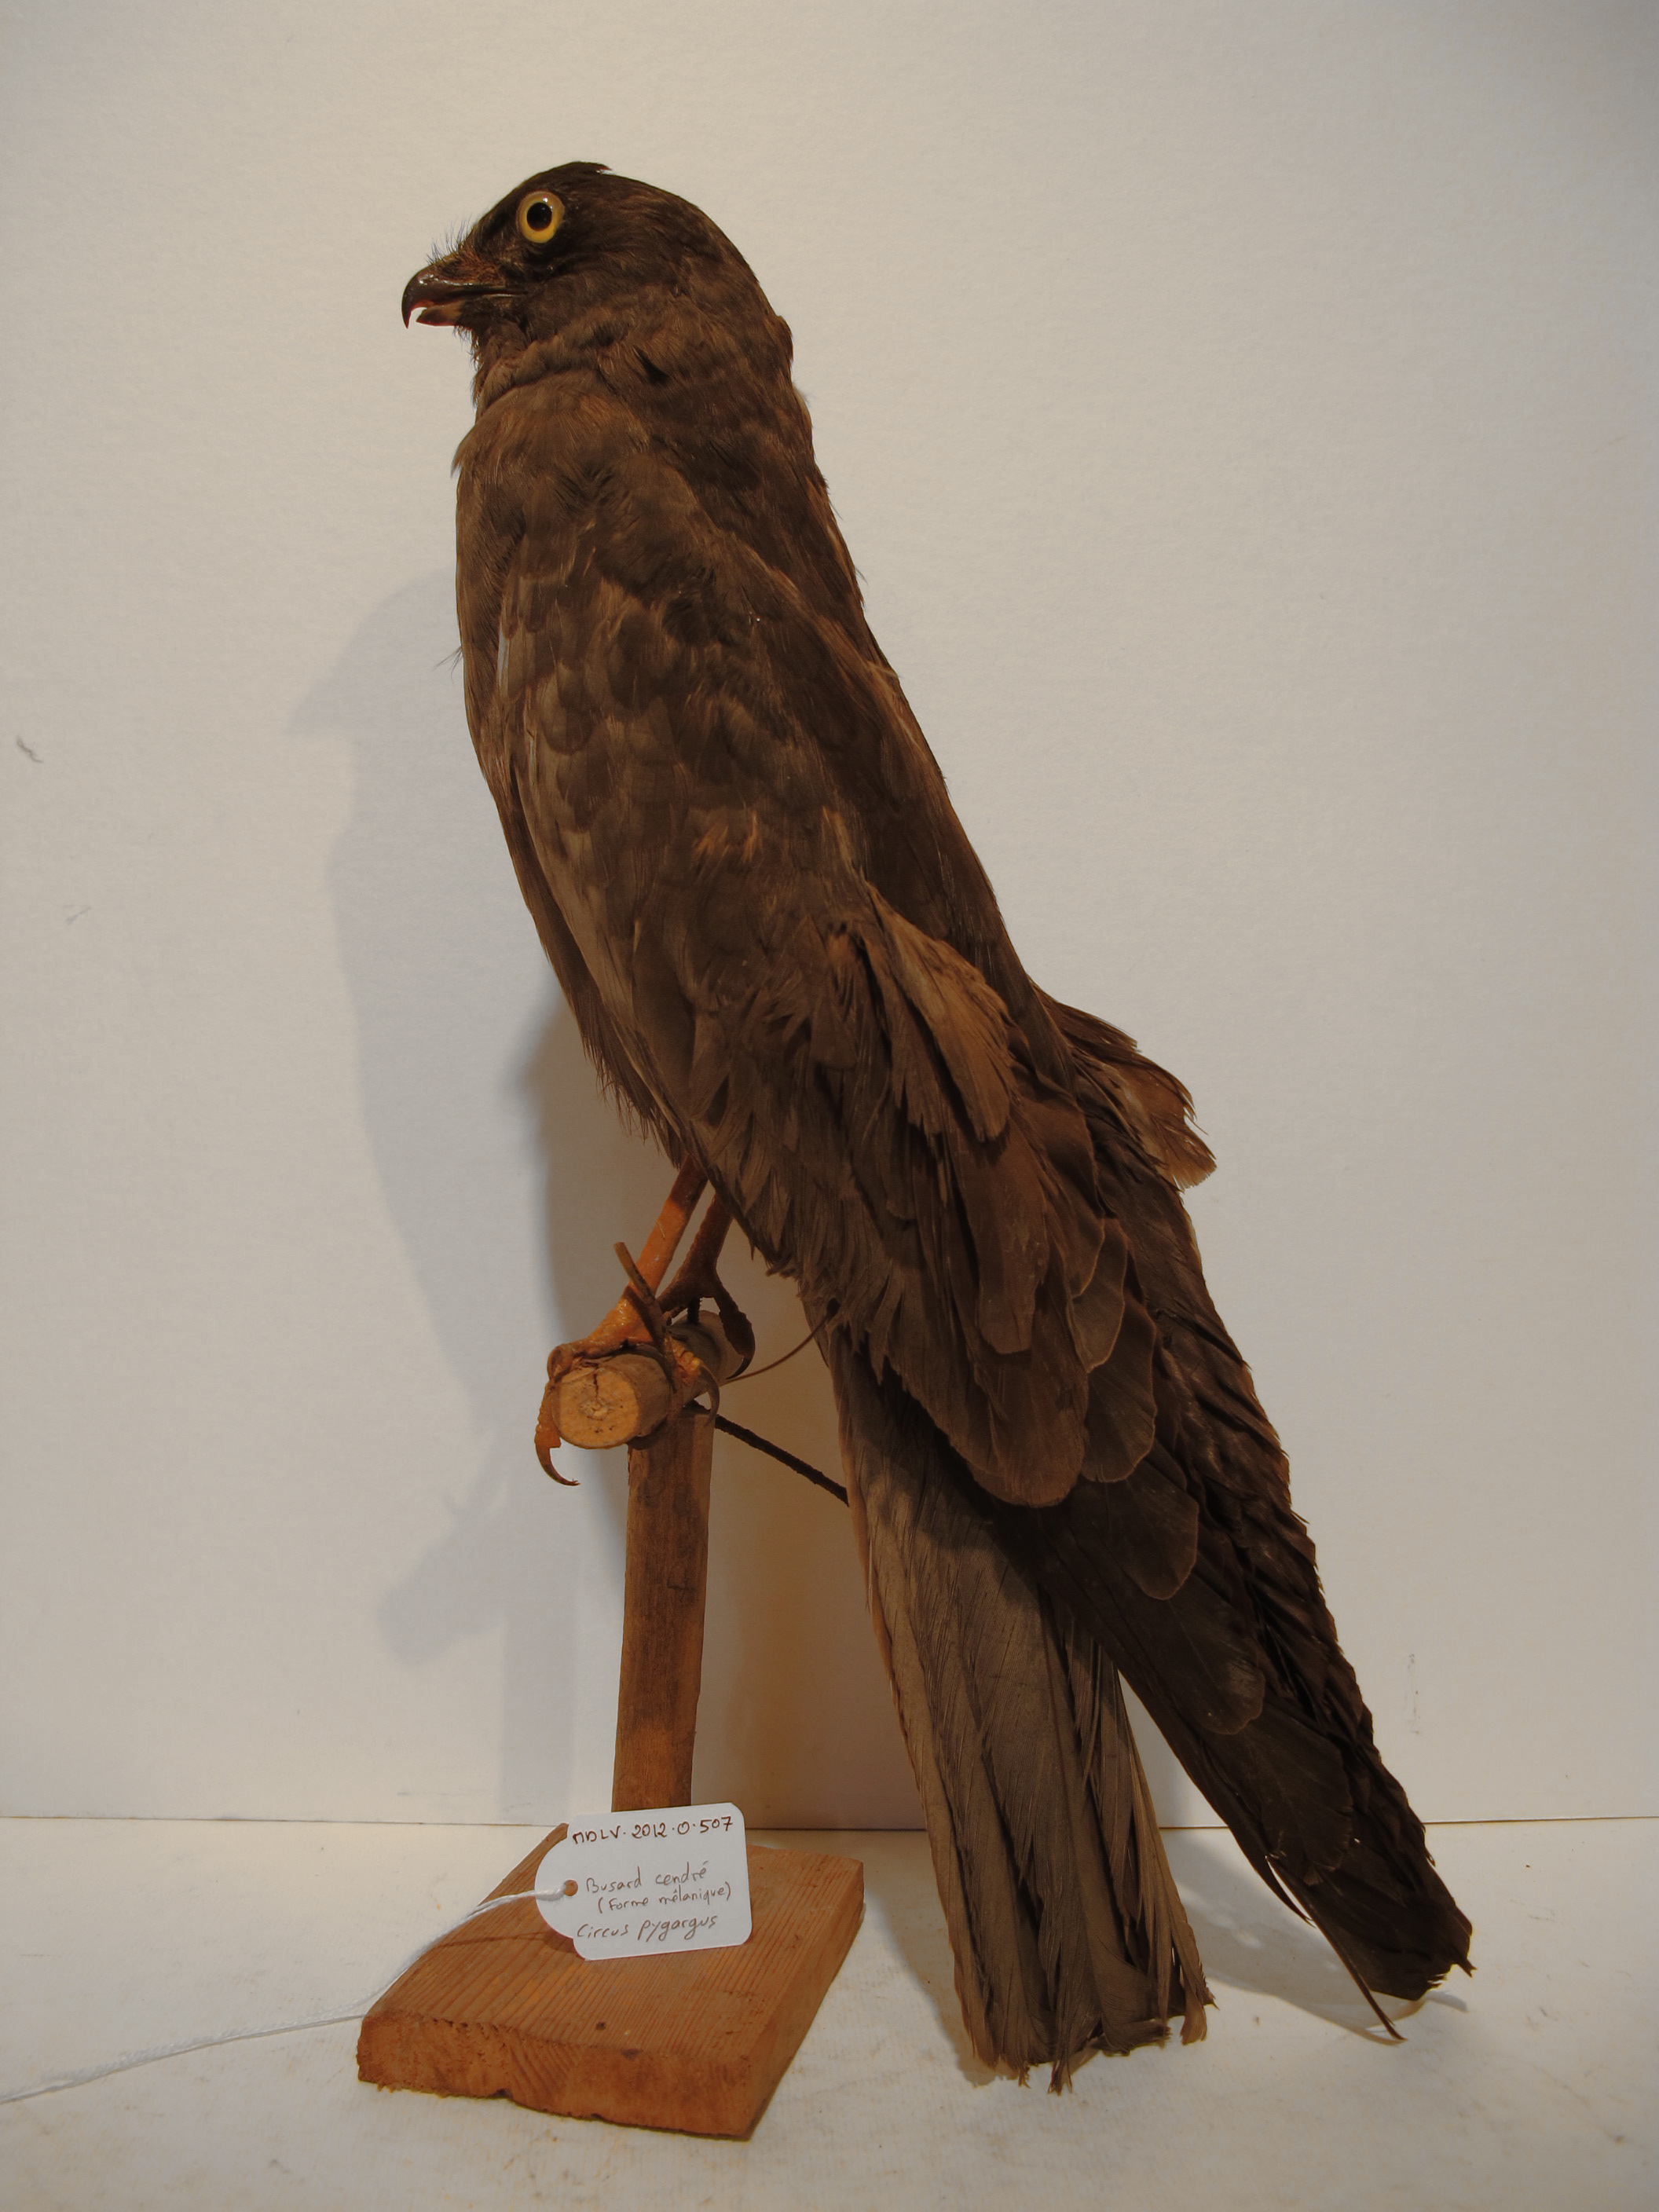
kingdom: Animalia
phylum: Chordata
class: Aves
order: Accipitriformes
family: Accipitridae
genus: Circus
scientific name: Circus pygargus
